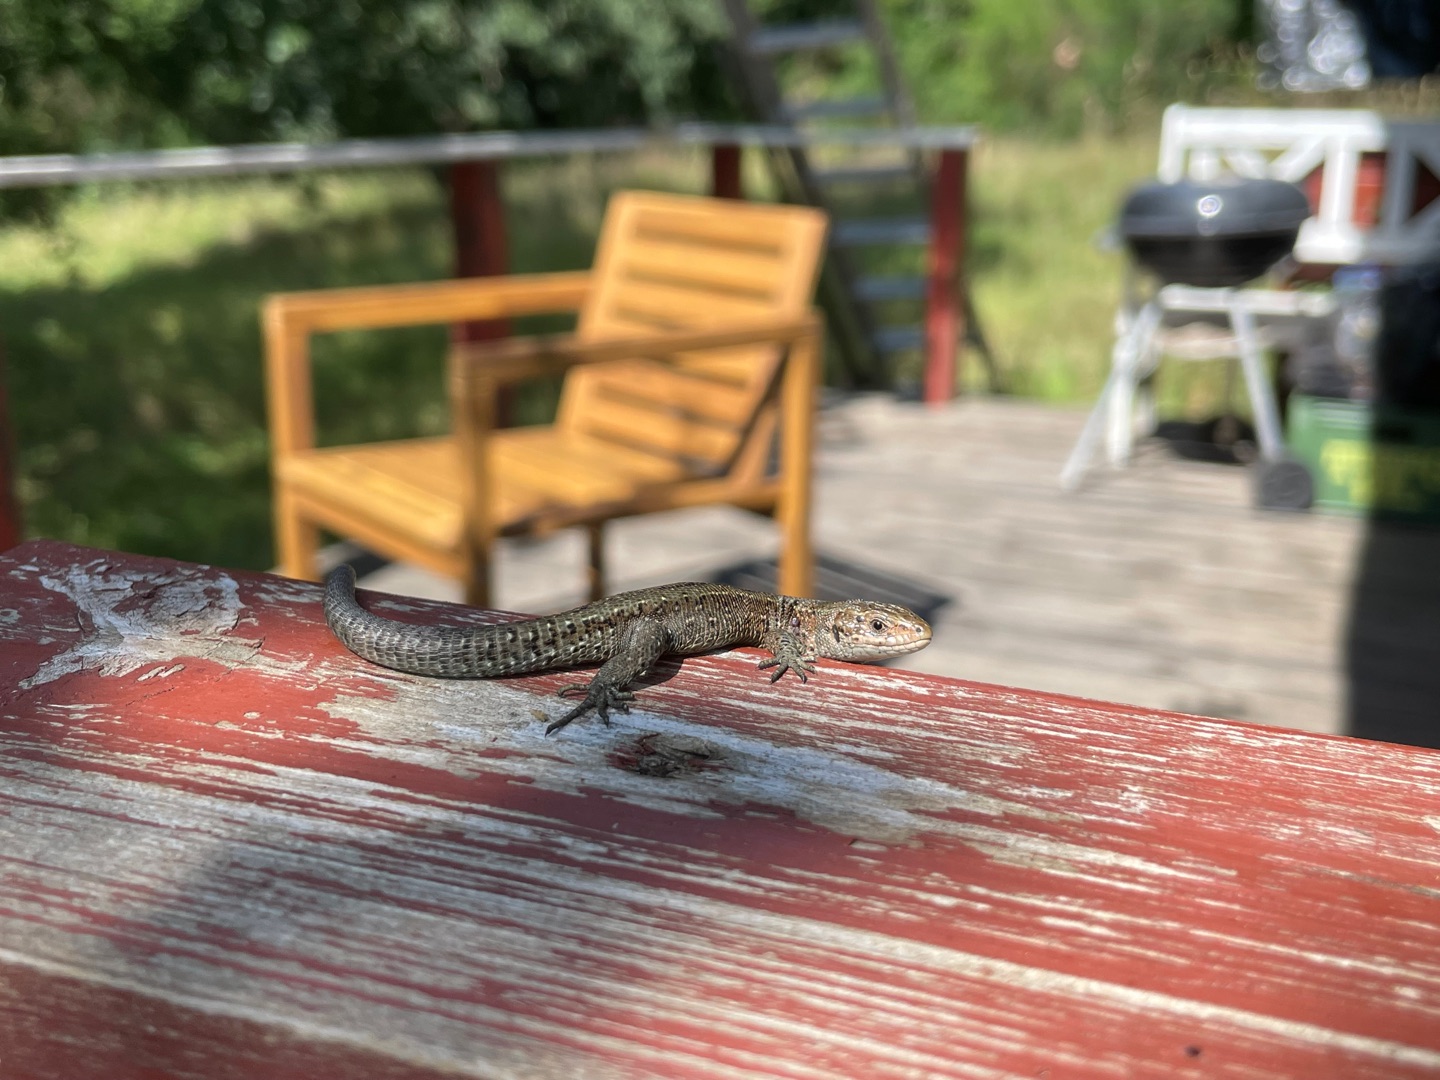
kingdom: Animalia
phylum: Chordata
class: Squamata
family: Lacertidae
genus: Zootoca
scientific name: Zootoca vivipara
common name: Skovfirben
